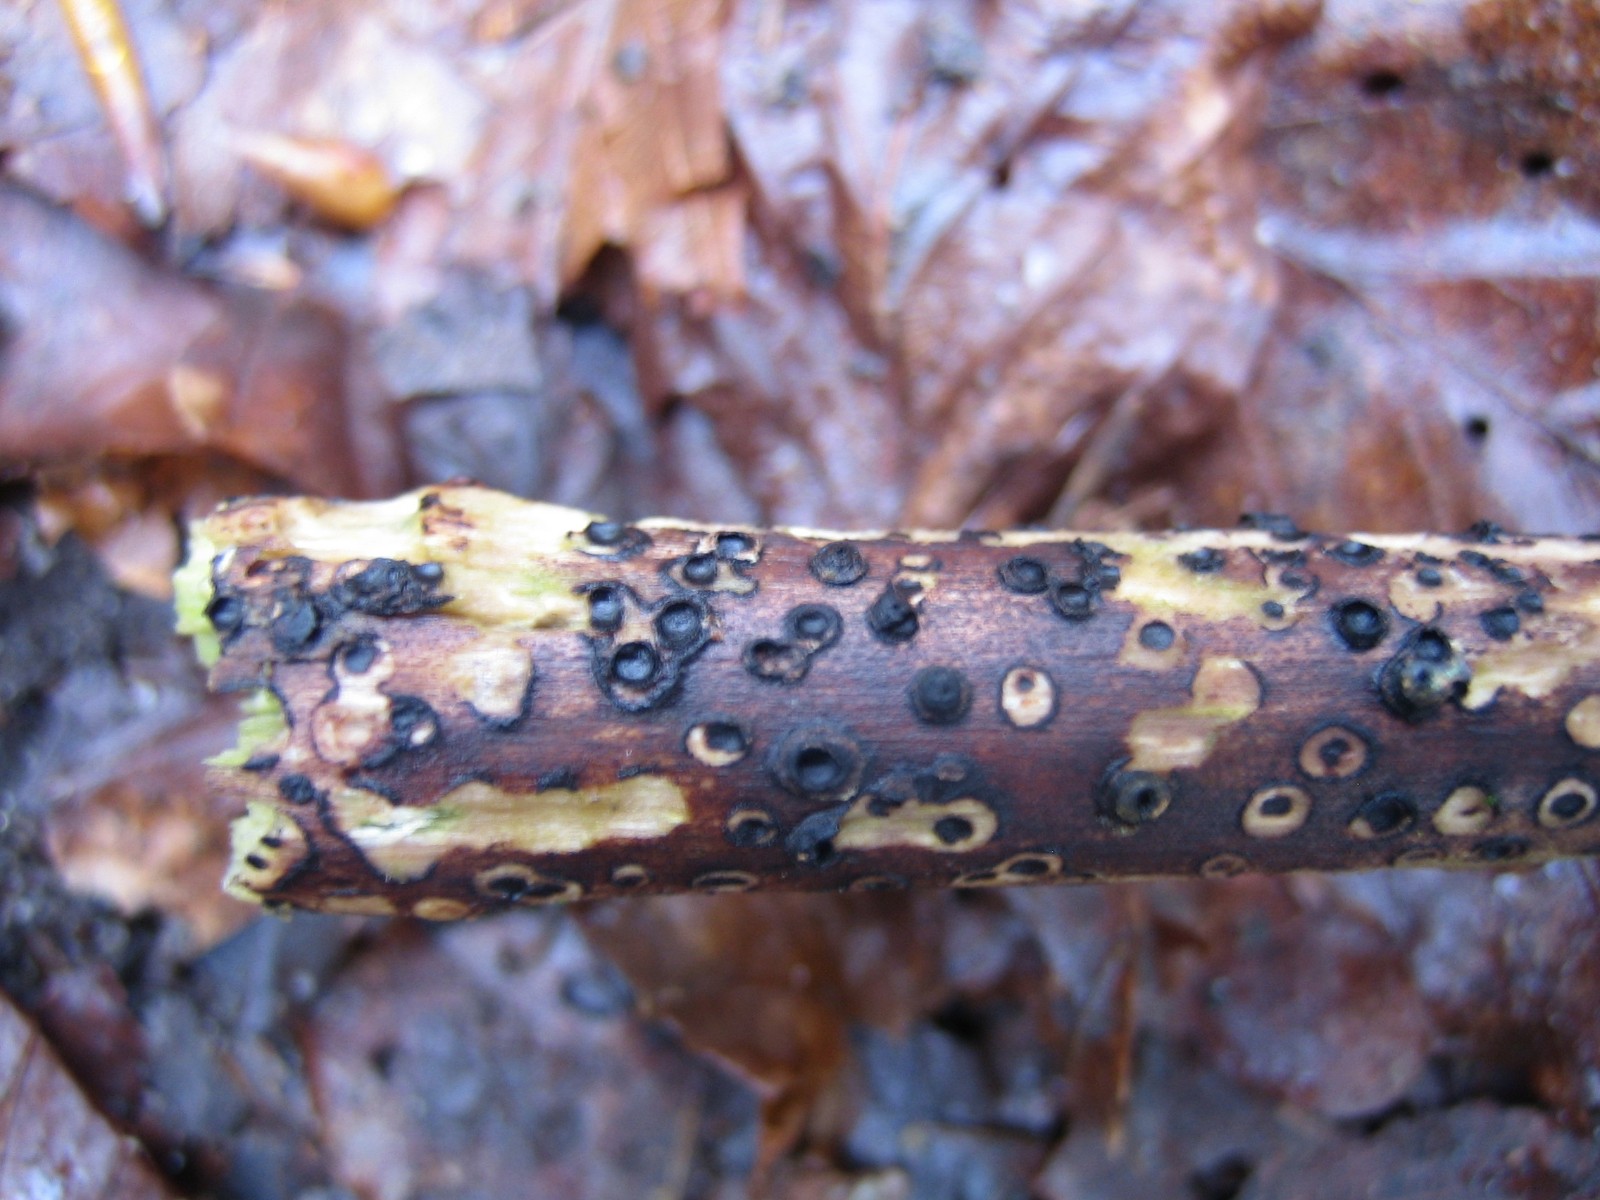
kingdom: Fungi
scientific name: Fungi
